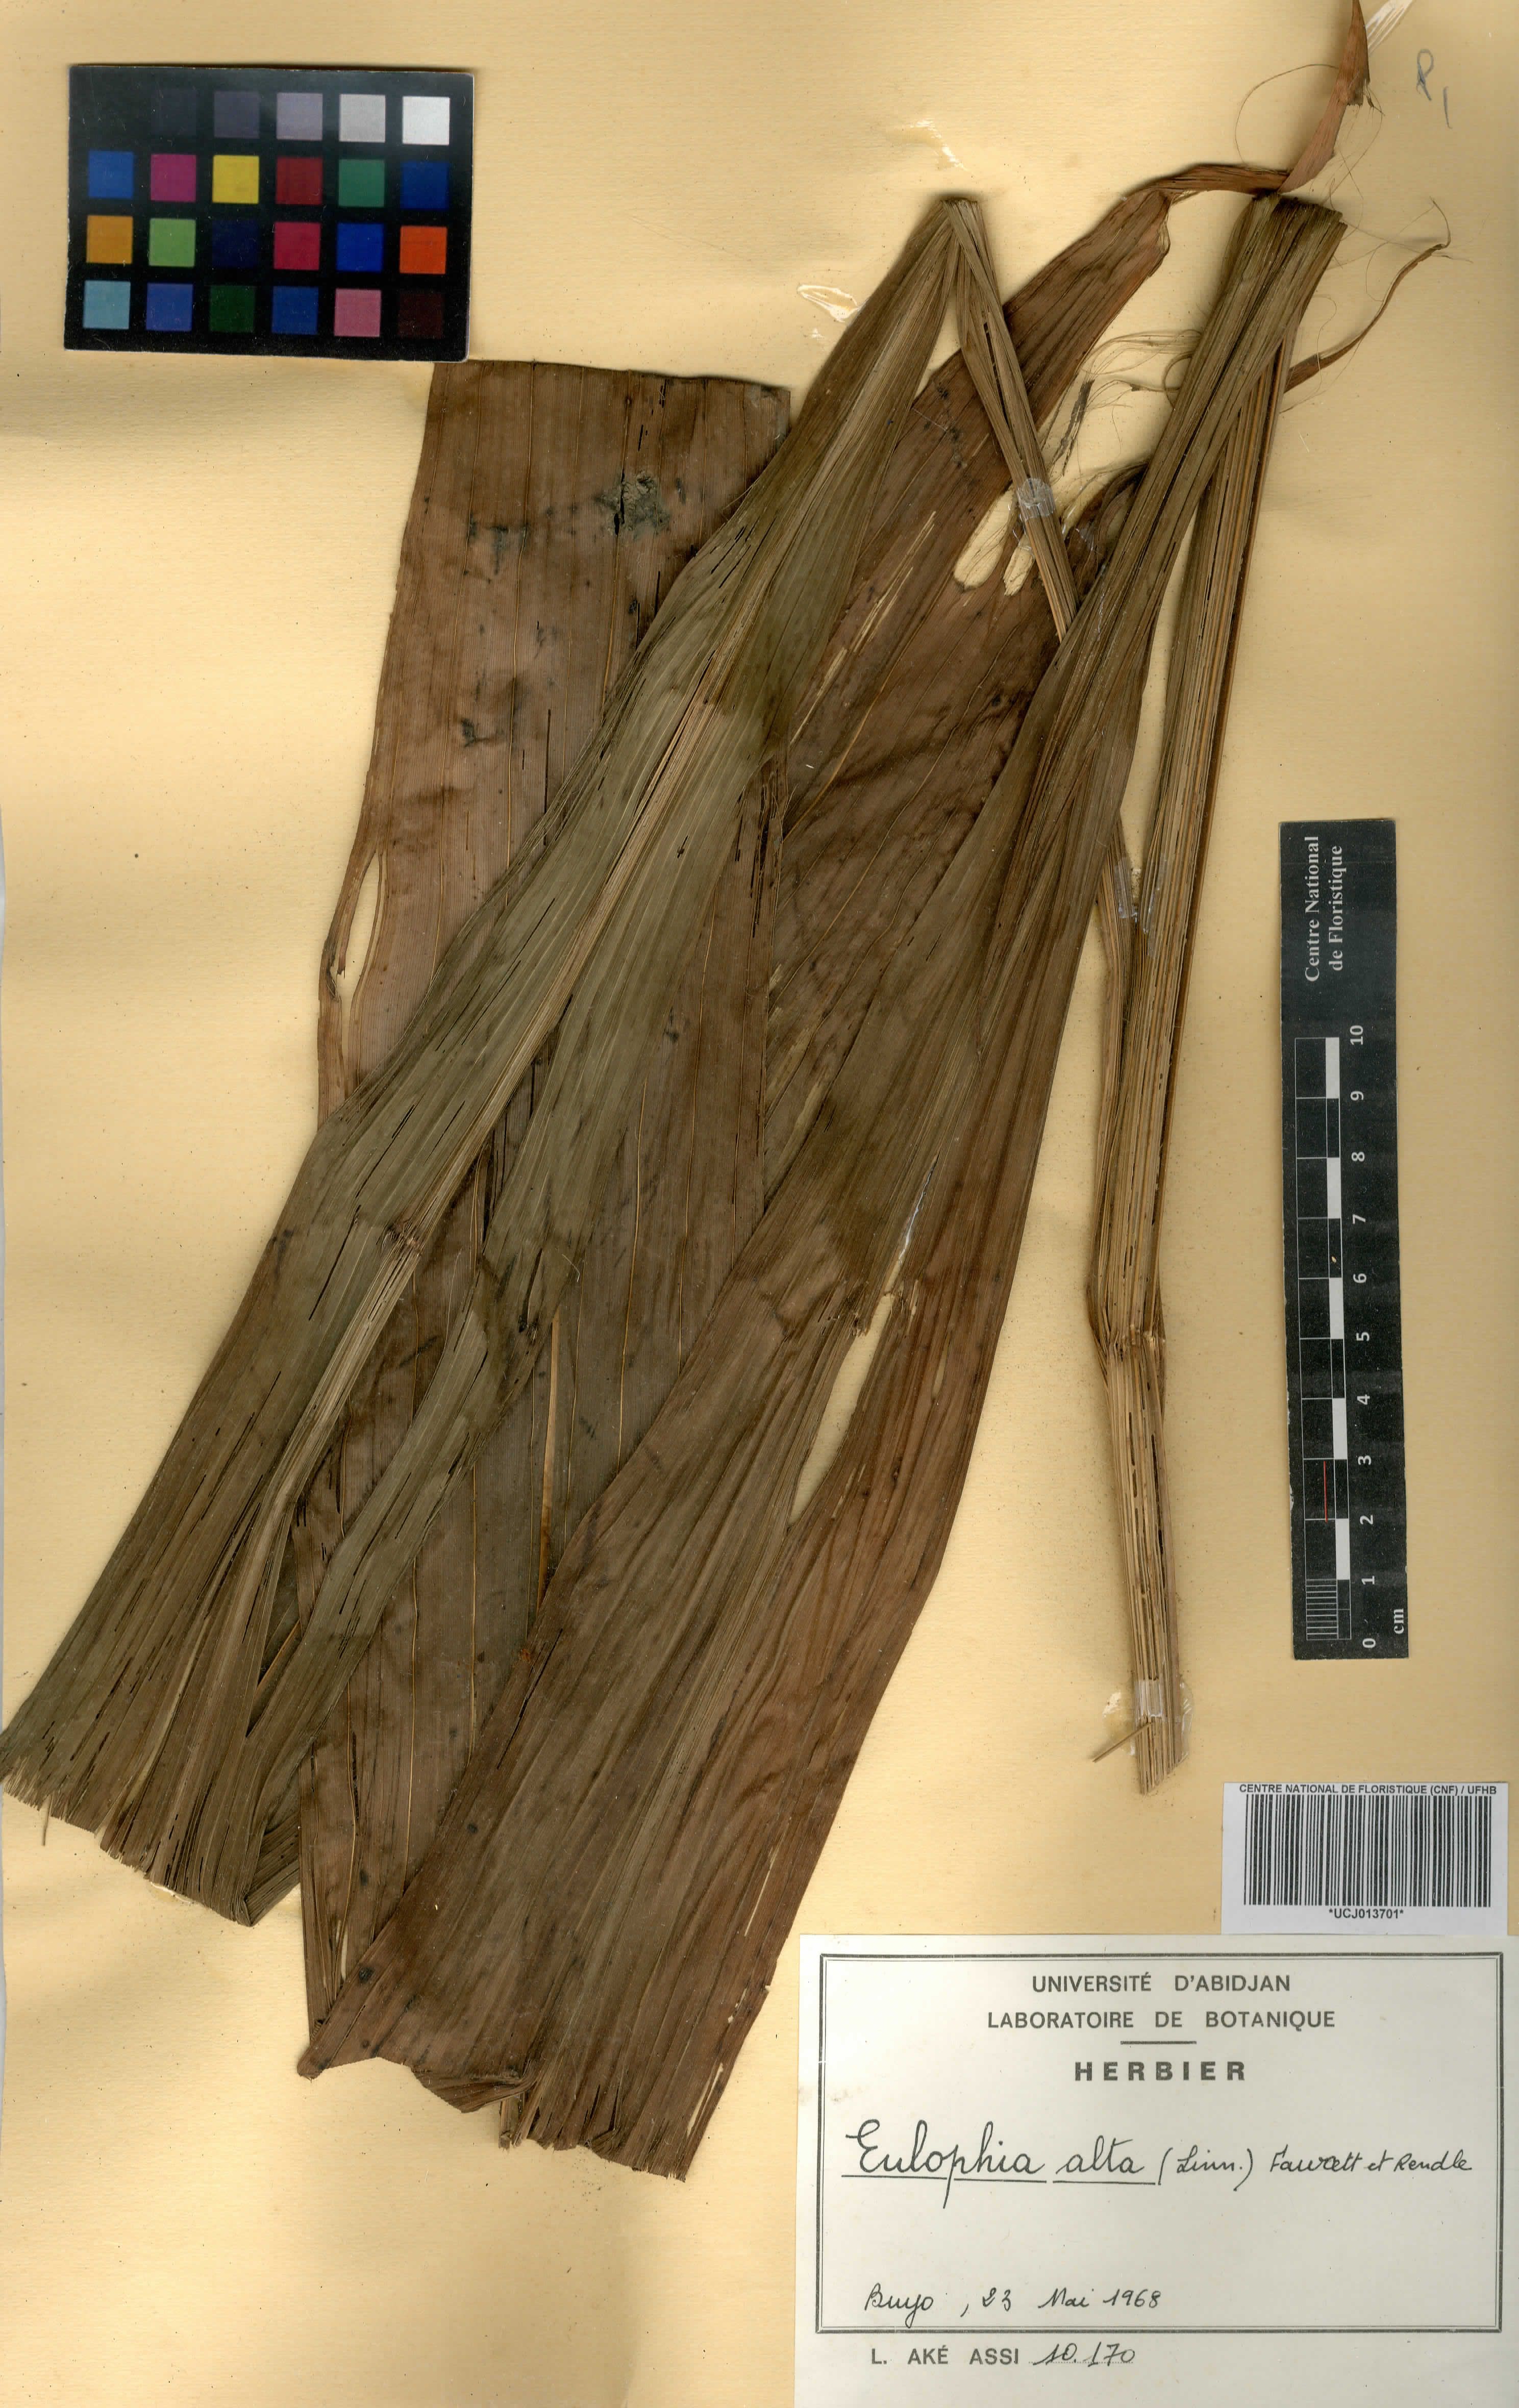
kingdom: Plantae
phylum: Tracheophyta
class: Liliopsida
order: Asparagales
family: Orchidaceae
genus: Eulophia
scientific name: Eulophia alta
